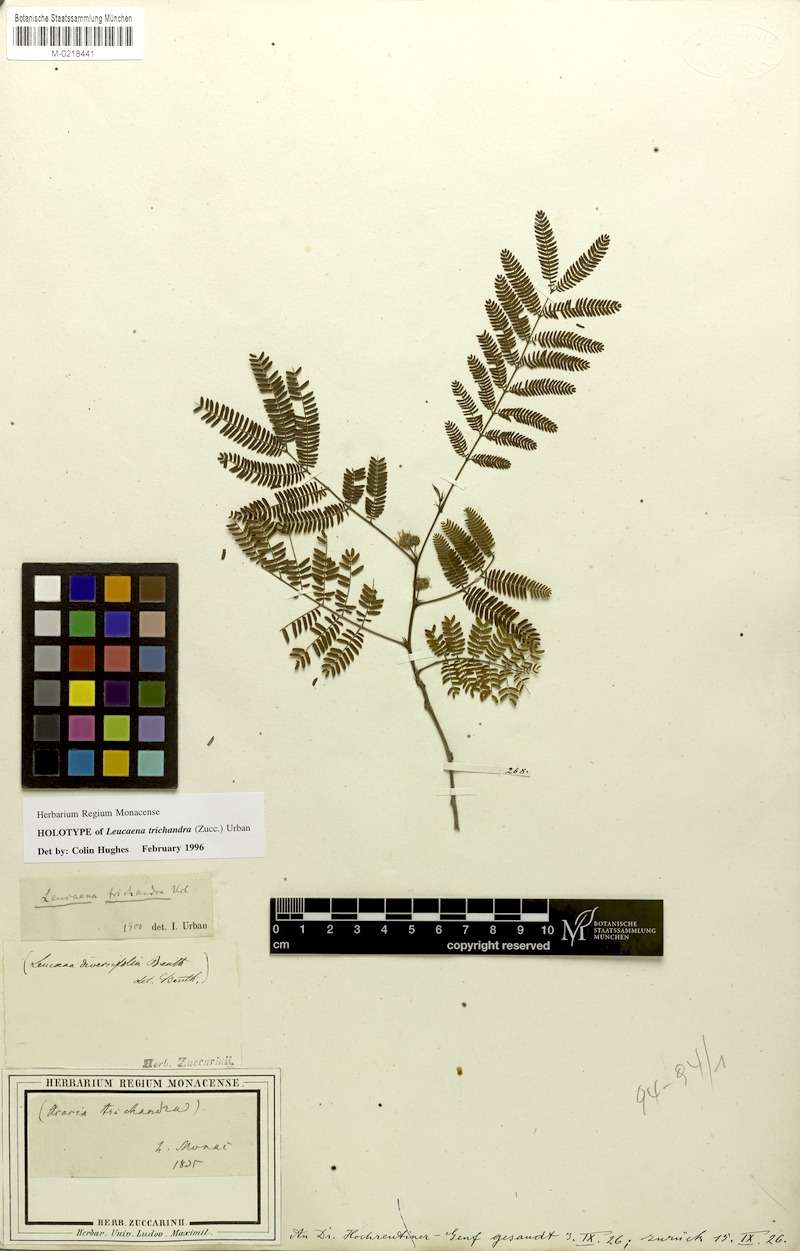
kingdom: Plantae
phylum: Tracheophyta
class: Magnoliopsida
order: Fabales
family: Fabaceae
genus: Leucaena
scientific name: Leucaena trichandra
